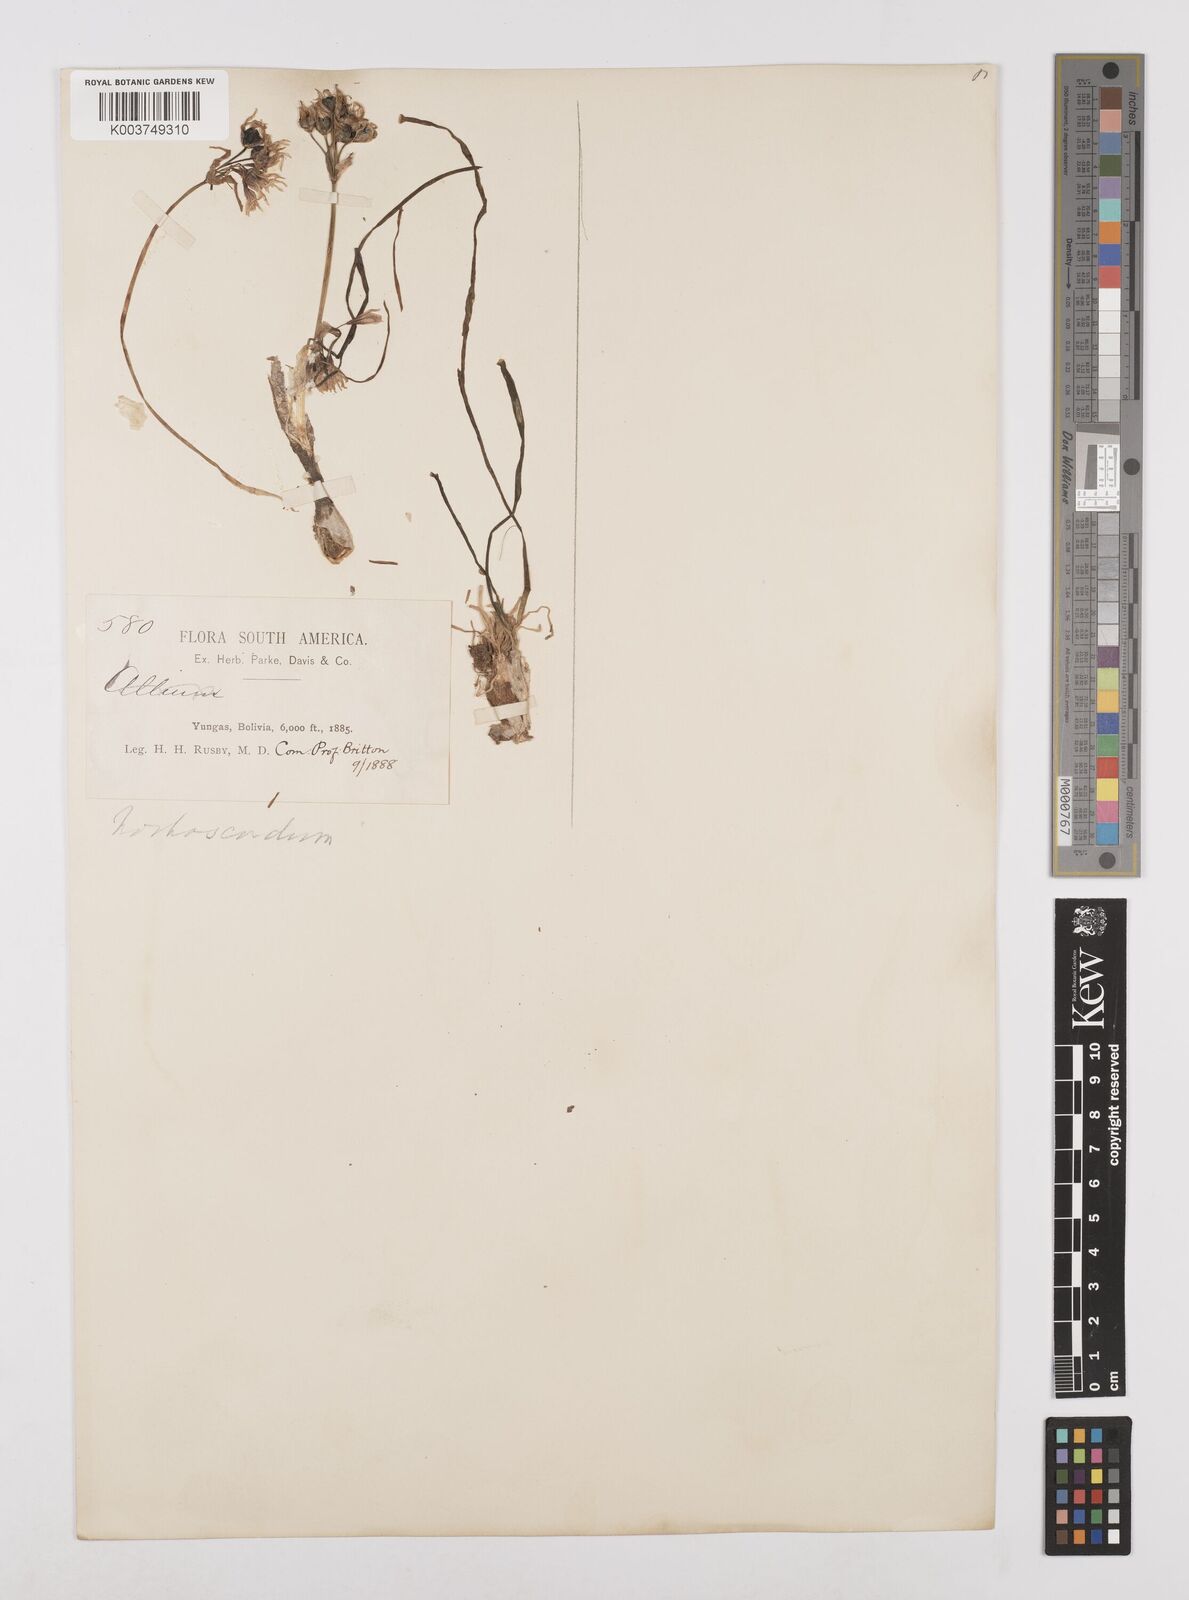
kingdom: Plantae
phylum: Tracheophyta
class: Liliopsida
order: Asparagales
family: Amaryllidaceae
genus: Nothoscordum
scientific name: Nothoscordum andicola
